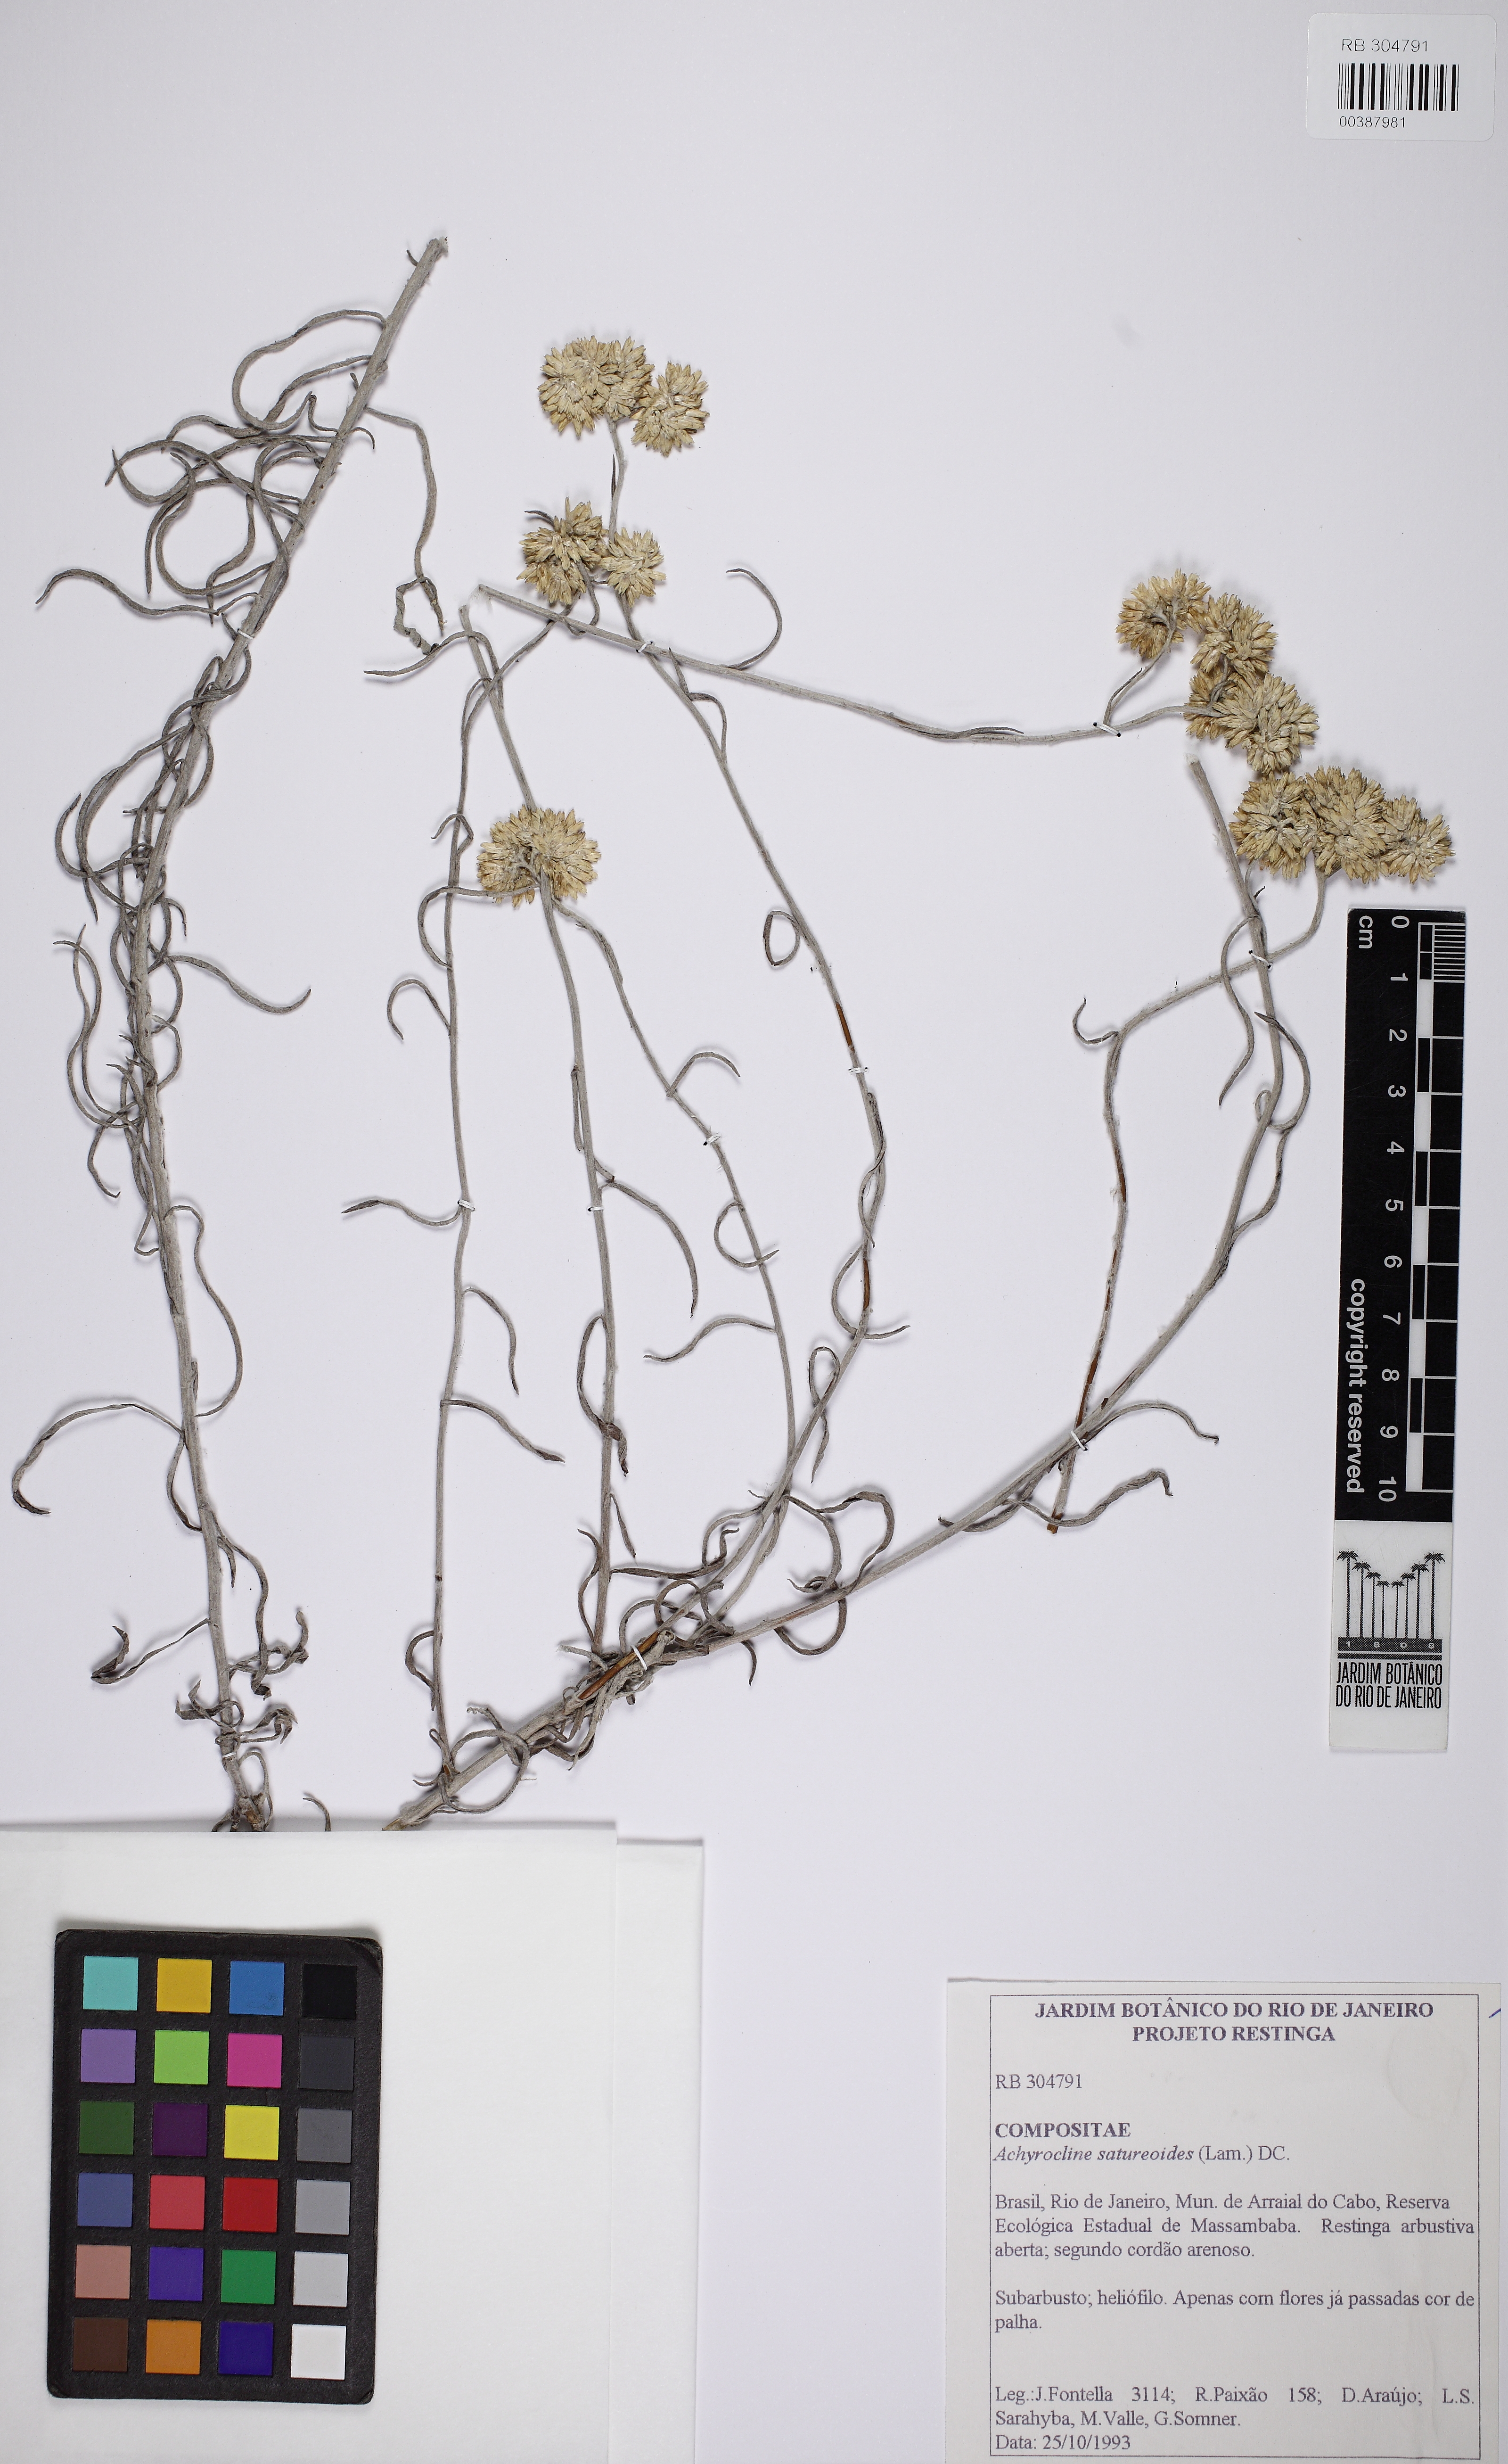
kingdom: Plantae
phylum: Tracheophyta
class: Magnoliopsida
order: Asterales
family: Asteraceae
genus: Achyrocline
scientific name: Achyrocline satureioides
